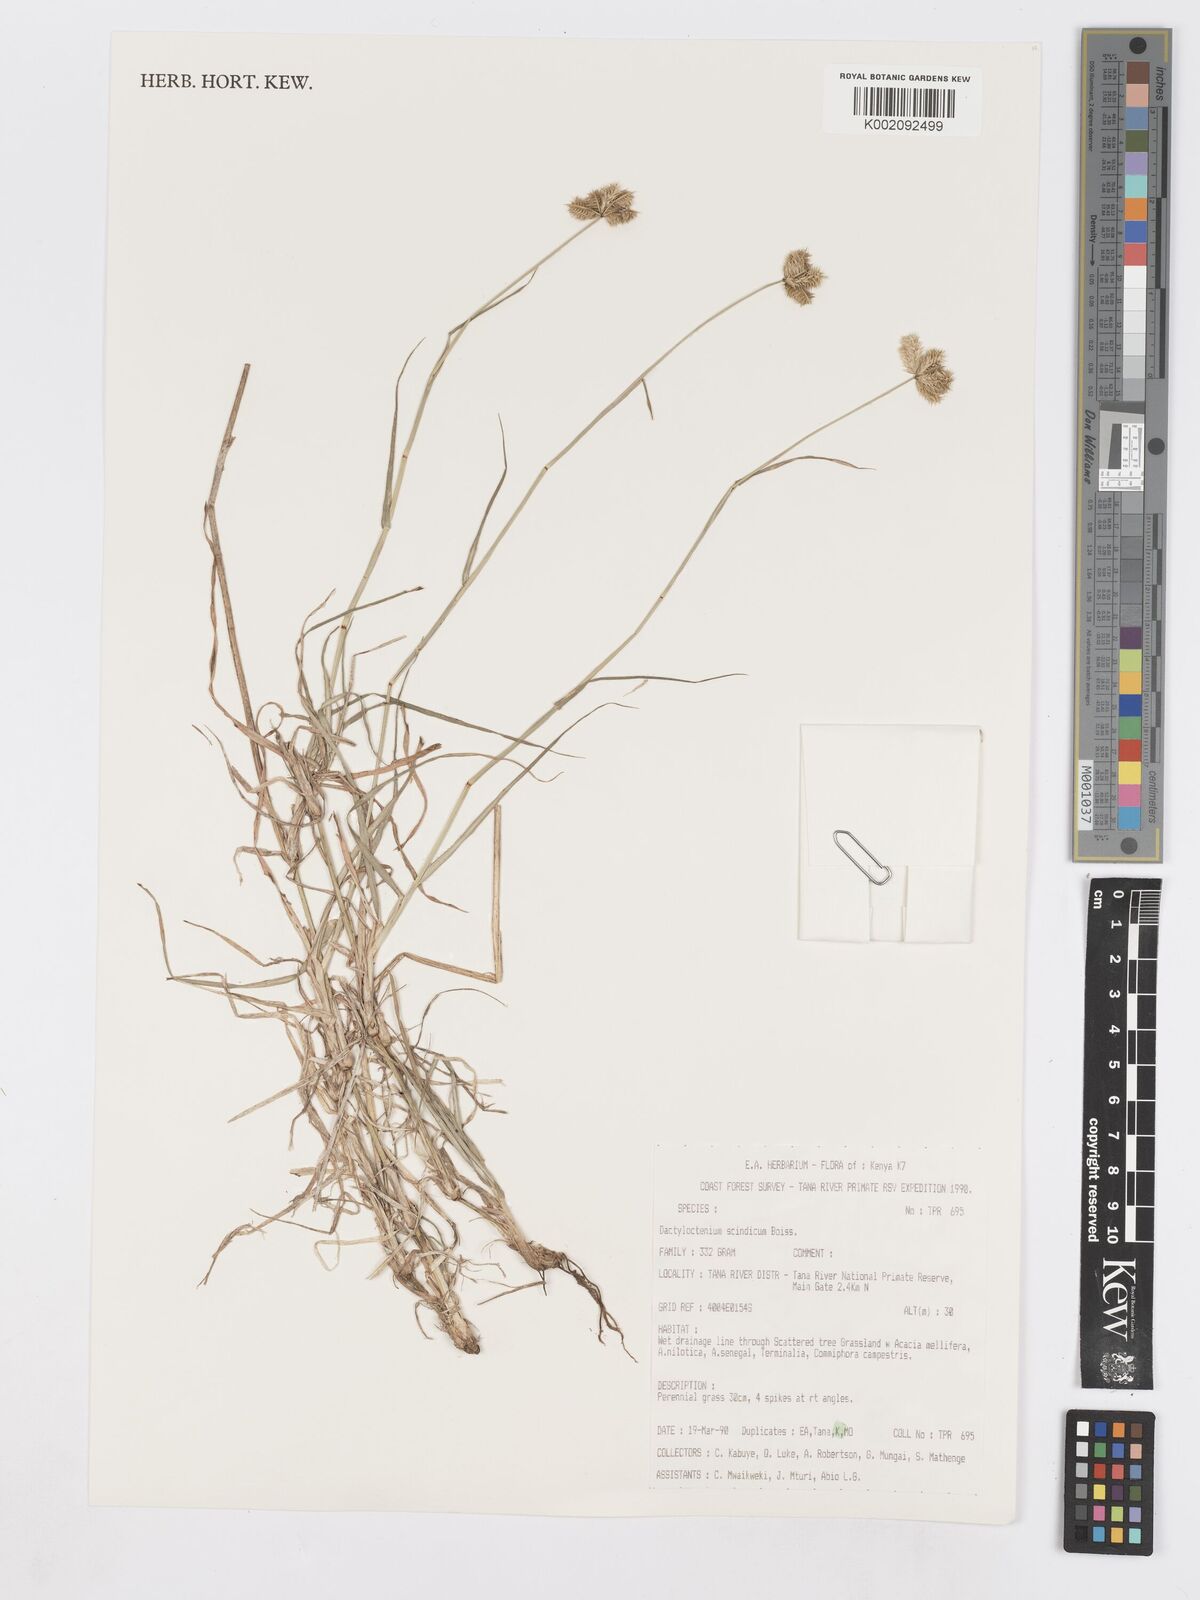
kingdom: Plantae
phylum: Tracheophyta
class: Liliopsida
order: Poales
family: Poaceae
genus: Dactyloctenium
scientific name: Dactyloctenium scindicum
